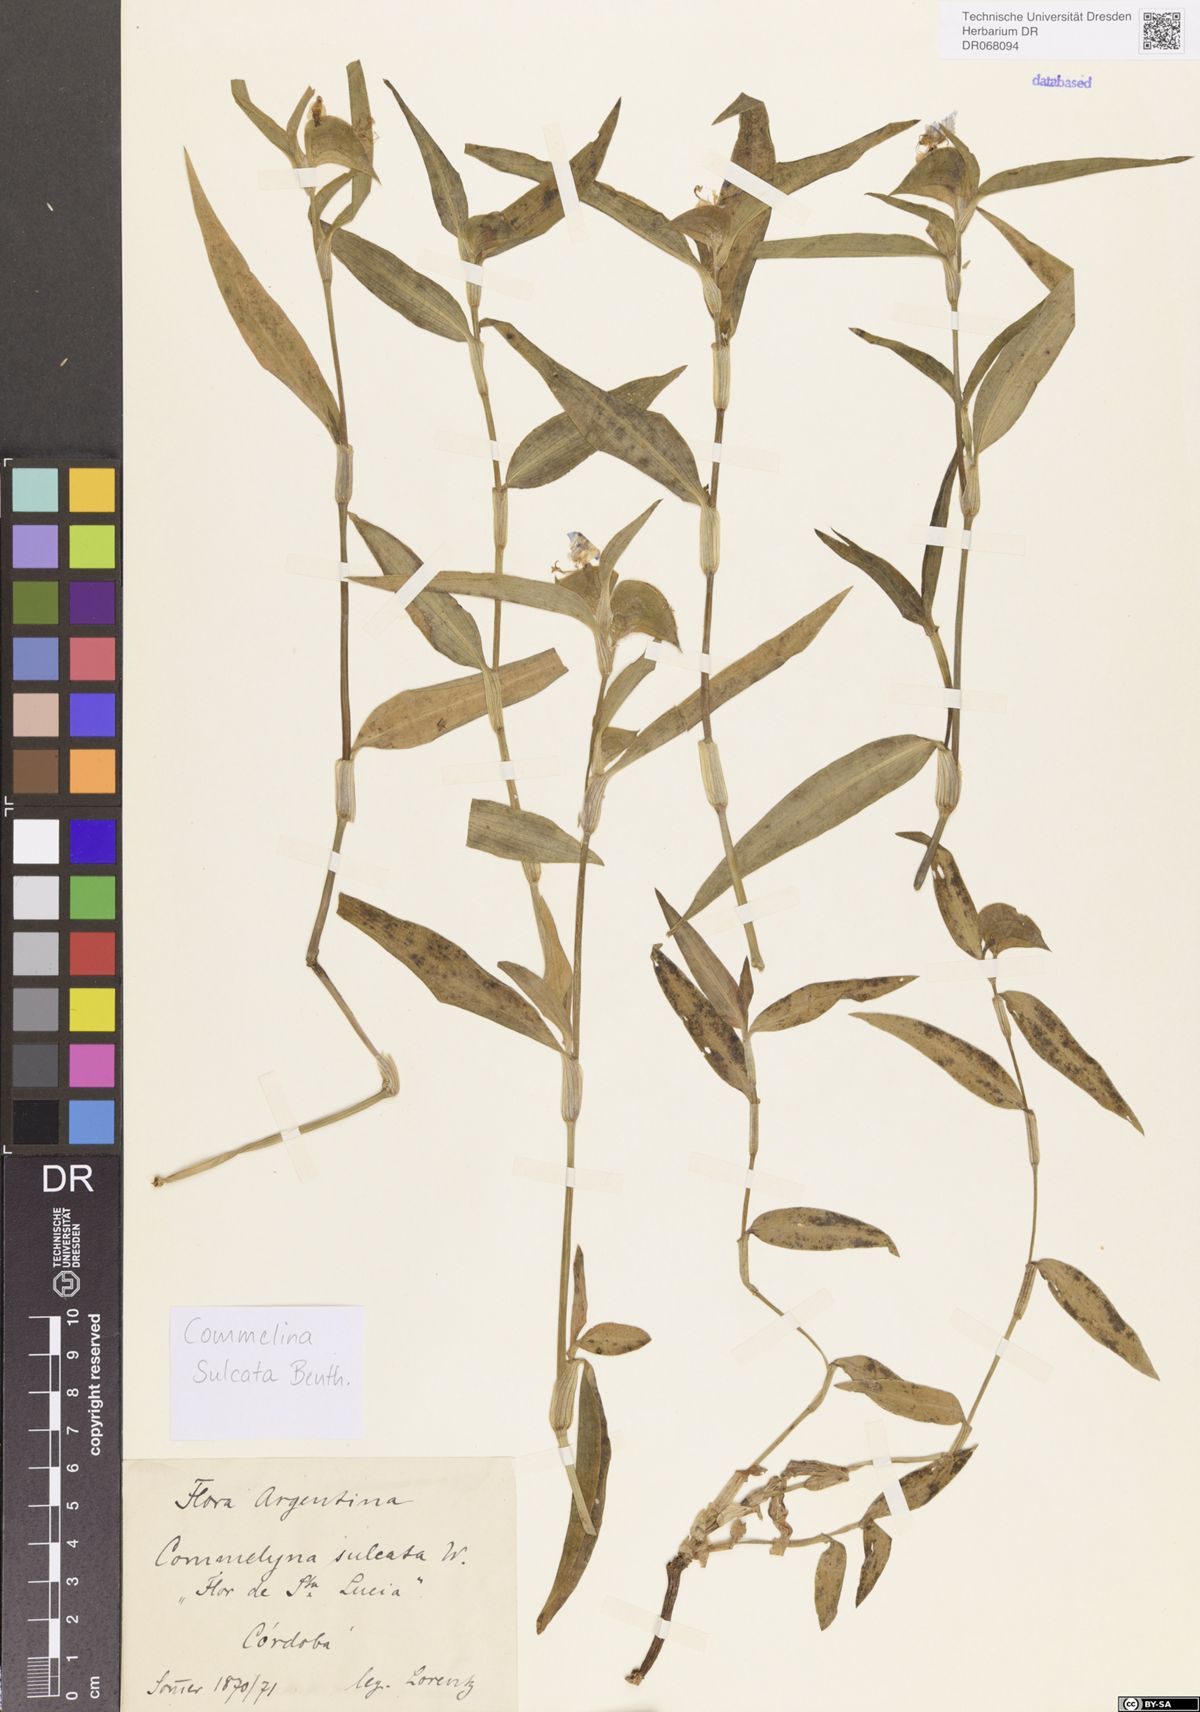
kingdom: Plantae
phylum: Tracheophyta
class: Liliopsida
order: Commelinales
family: Commelinaceae
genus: Commelina
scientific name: Commelina erecta
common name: Blousel blommetjie
